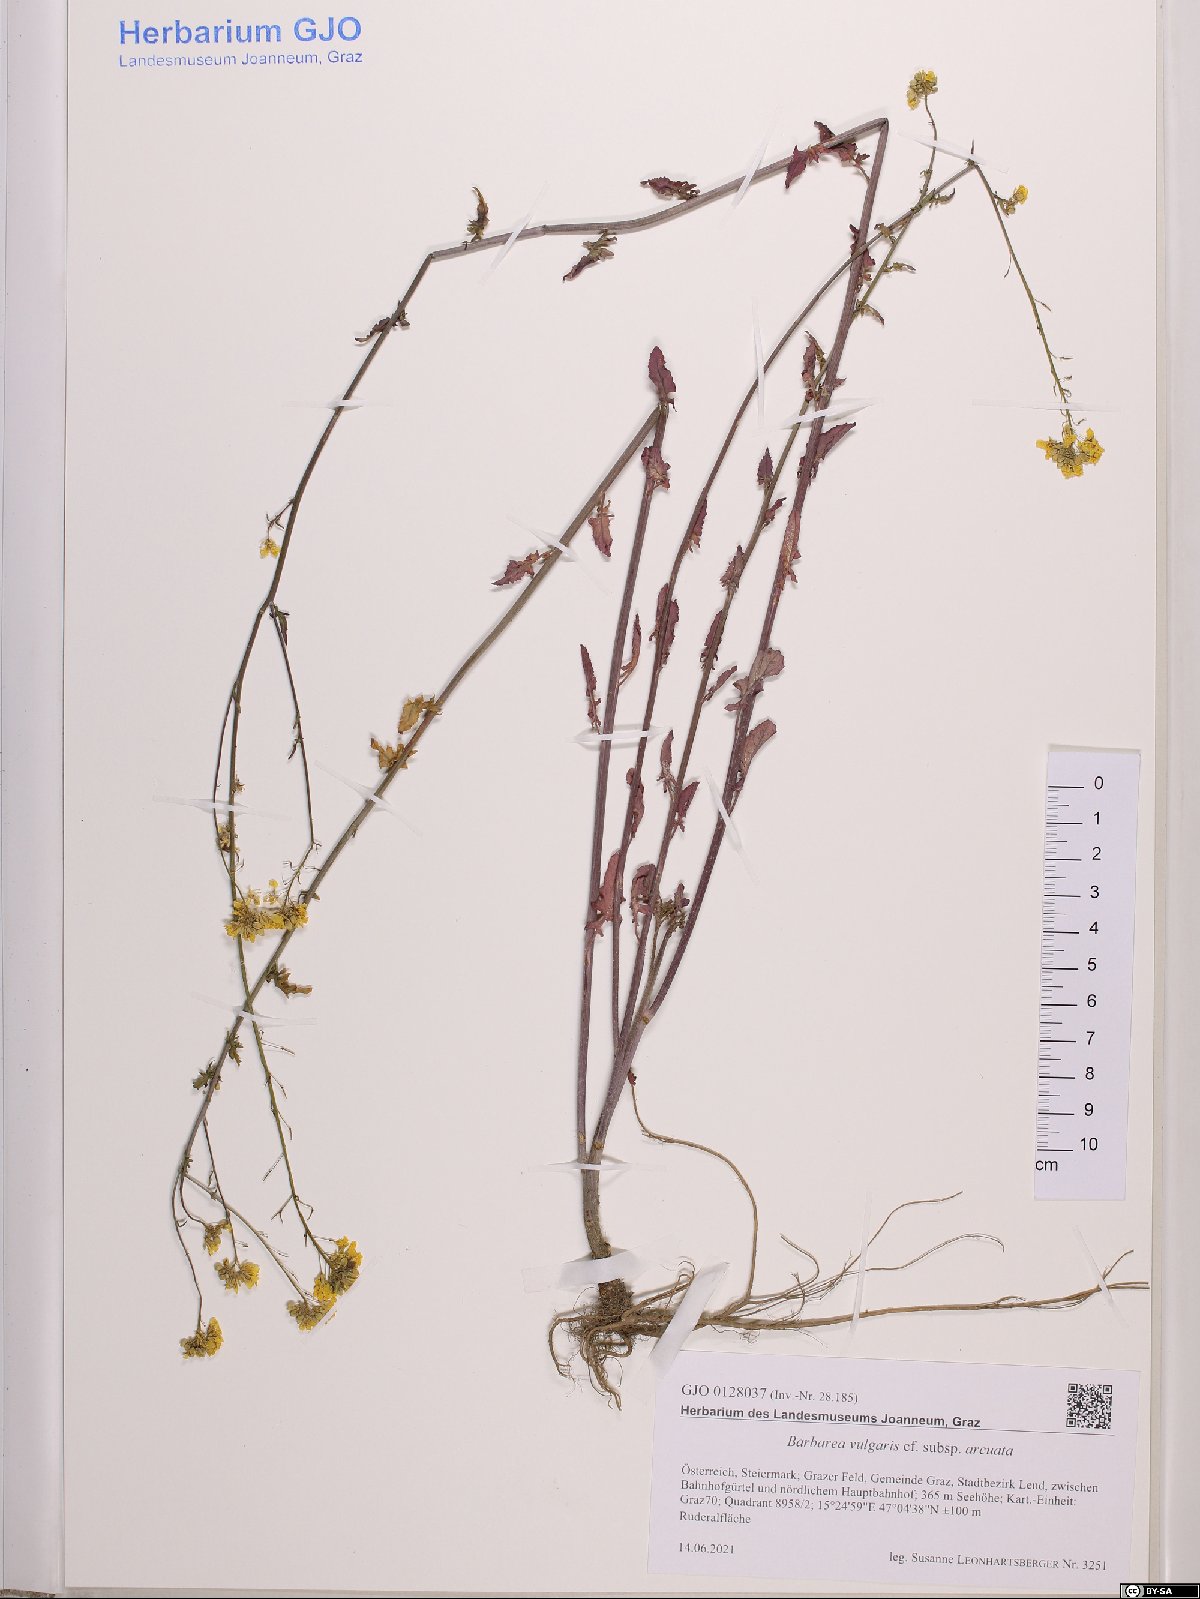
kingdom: Plantae
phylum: Tracheophyta
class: Magnoliopsida
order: Brassicales
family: Brassicaceae
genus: Barbarea
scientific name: Barbarea vulgaris
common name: Cressy-greens
